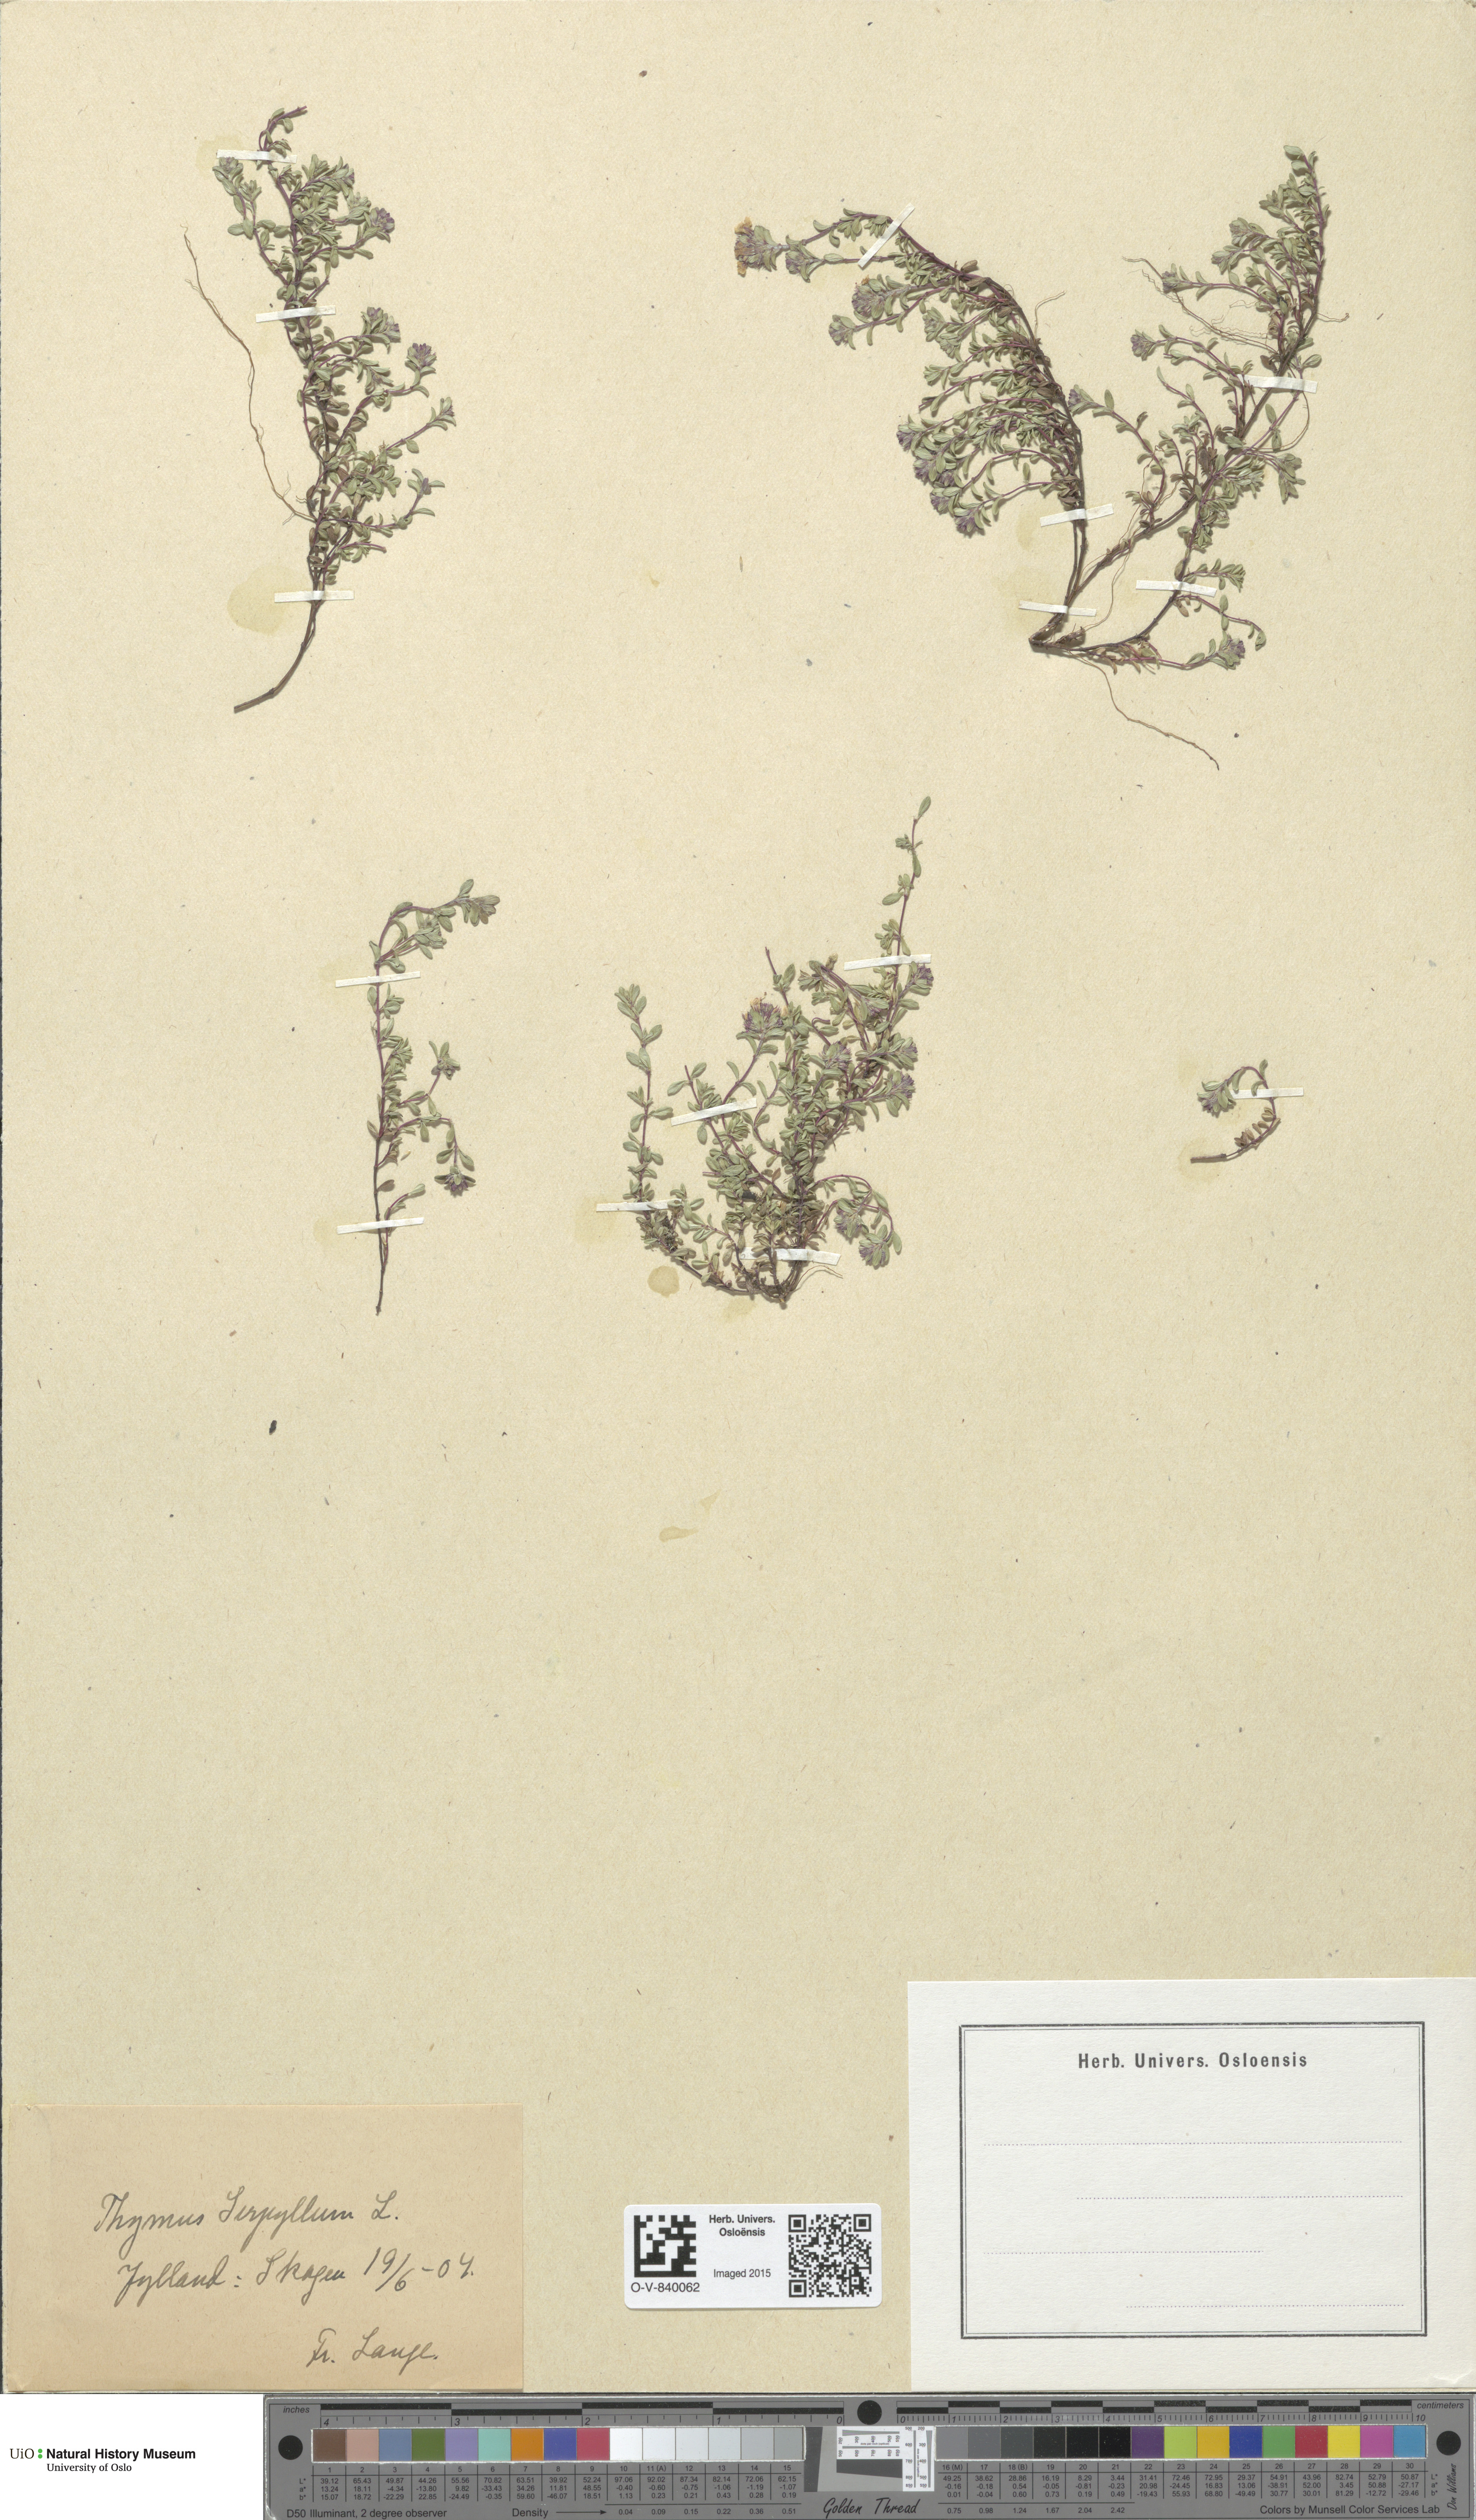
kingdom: Plantae
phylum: Tracheophyta
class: Magnoliopsida
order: Lamiales
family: Lamiaceae
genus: Thymus
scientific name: Thymus serpyllum
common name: Breckland thyme
